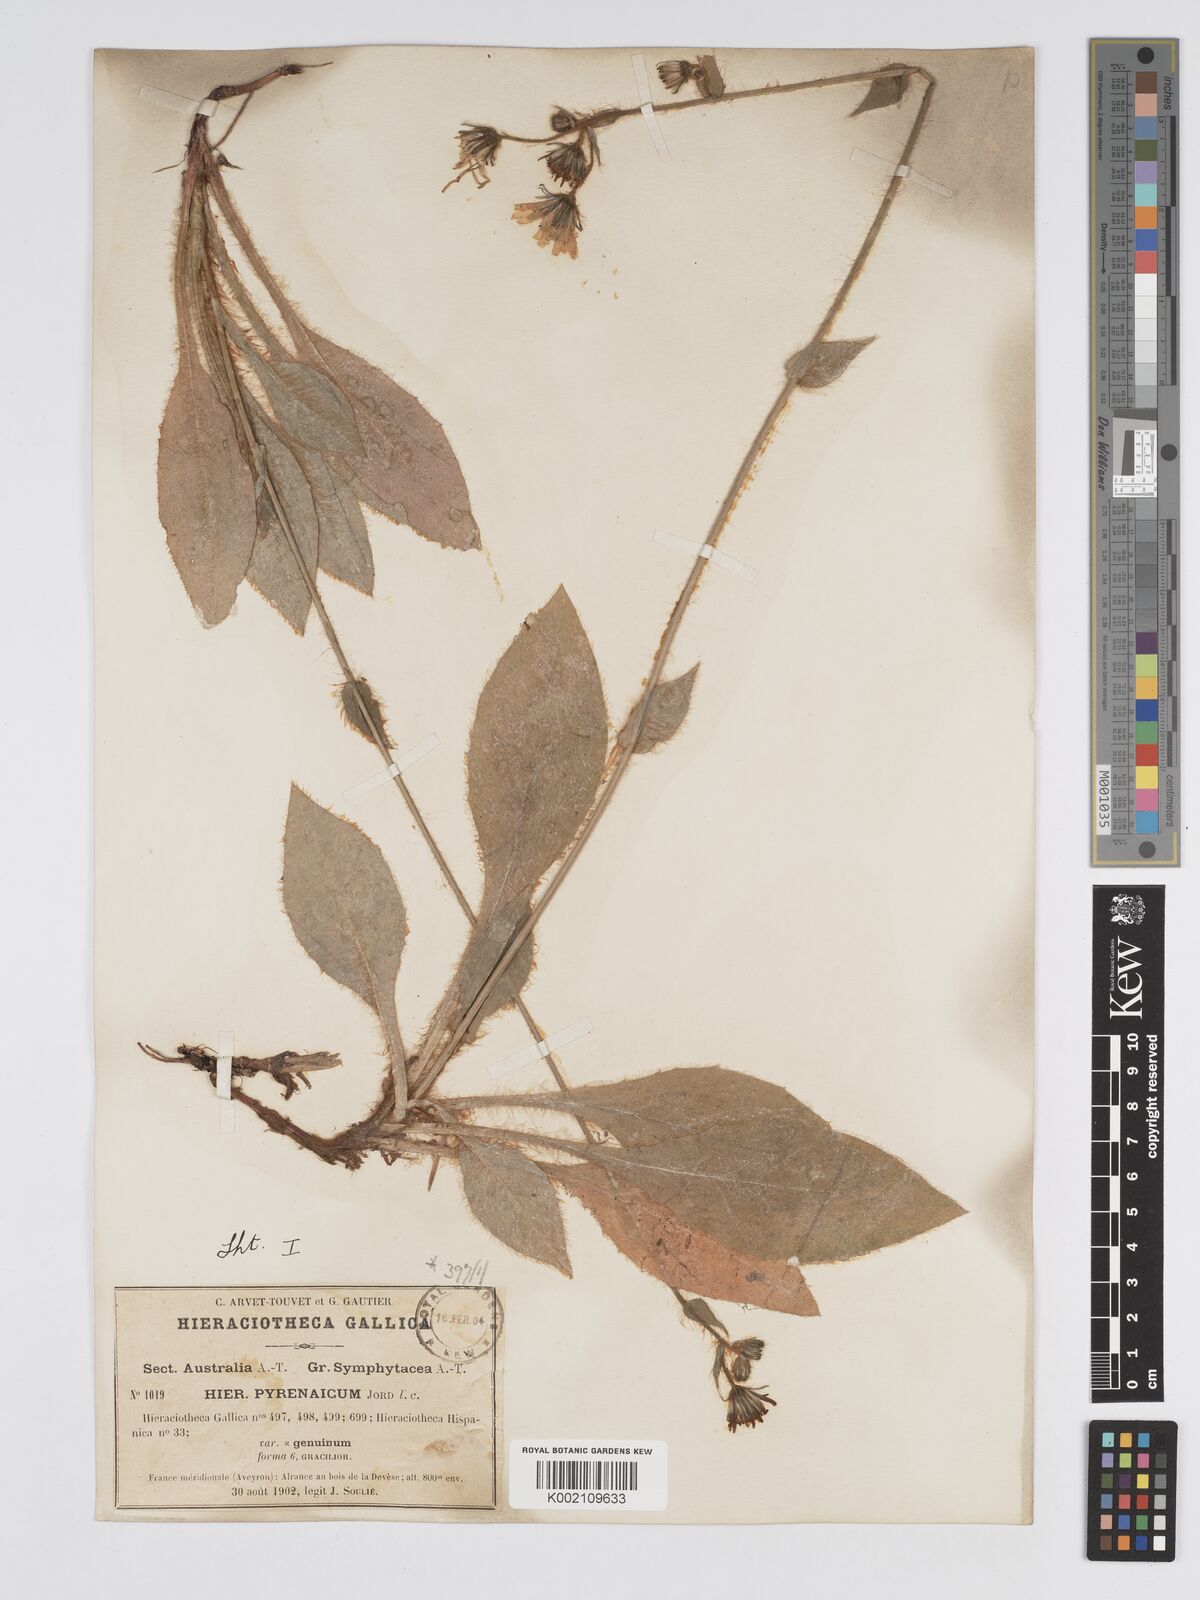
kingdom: Plantae
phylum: Tracheophyta
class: Magnoliopsida
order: Asterales
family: Asteraceae
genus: Hieracium
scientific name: Hieracium nobile
